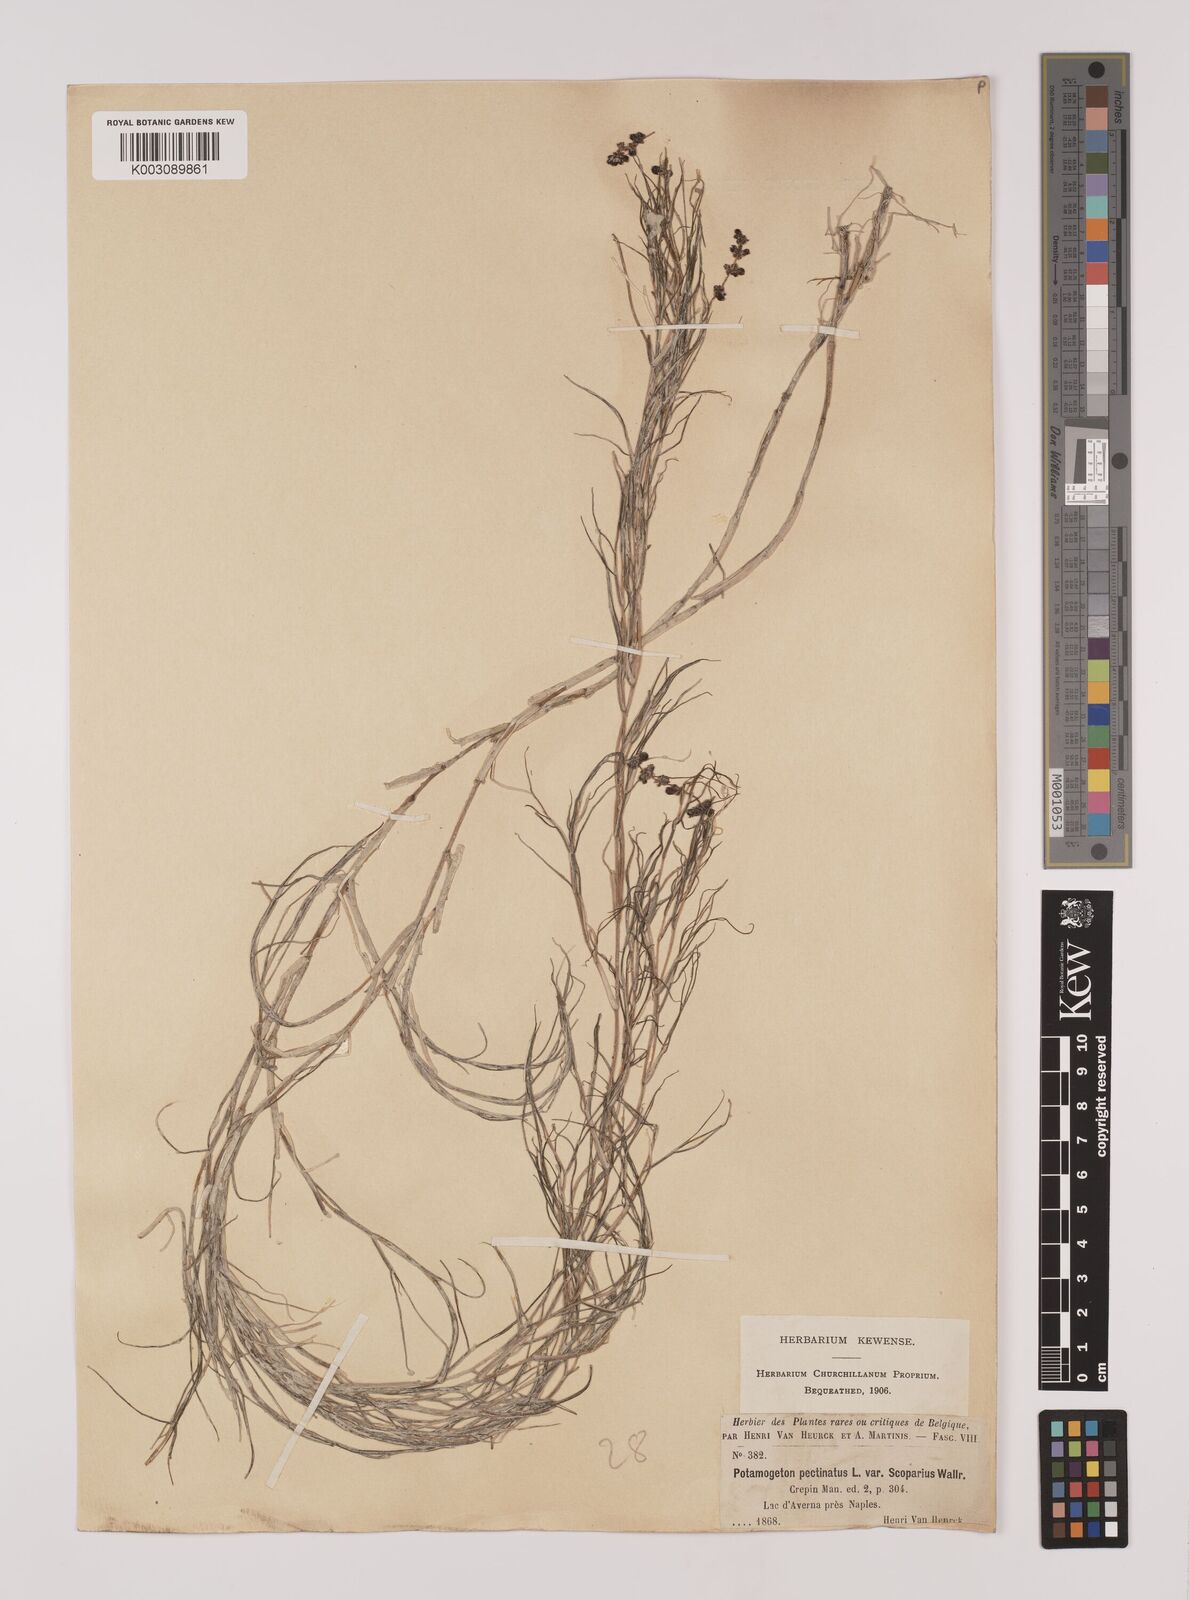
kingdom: Plantae
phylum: Tracheophyta
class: Liliopsida
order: Alismatales
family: Potamogetonaceae
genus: Stuckenia
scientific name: Stuckenia pectinata
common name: Sago pondweed
